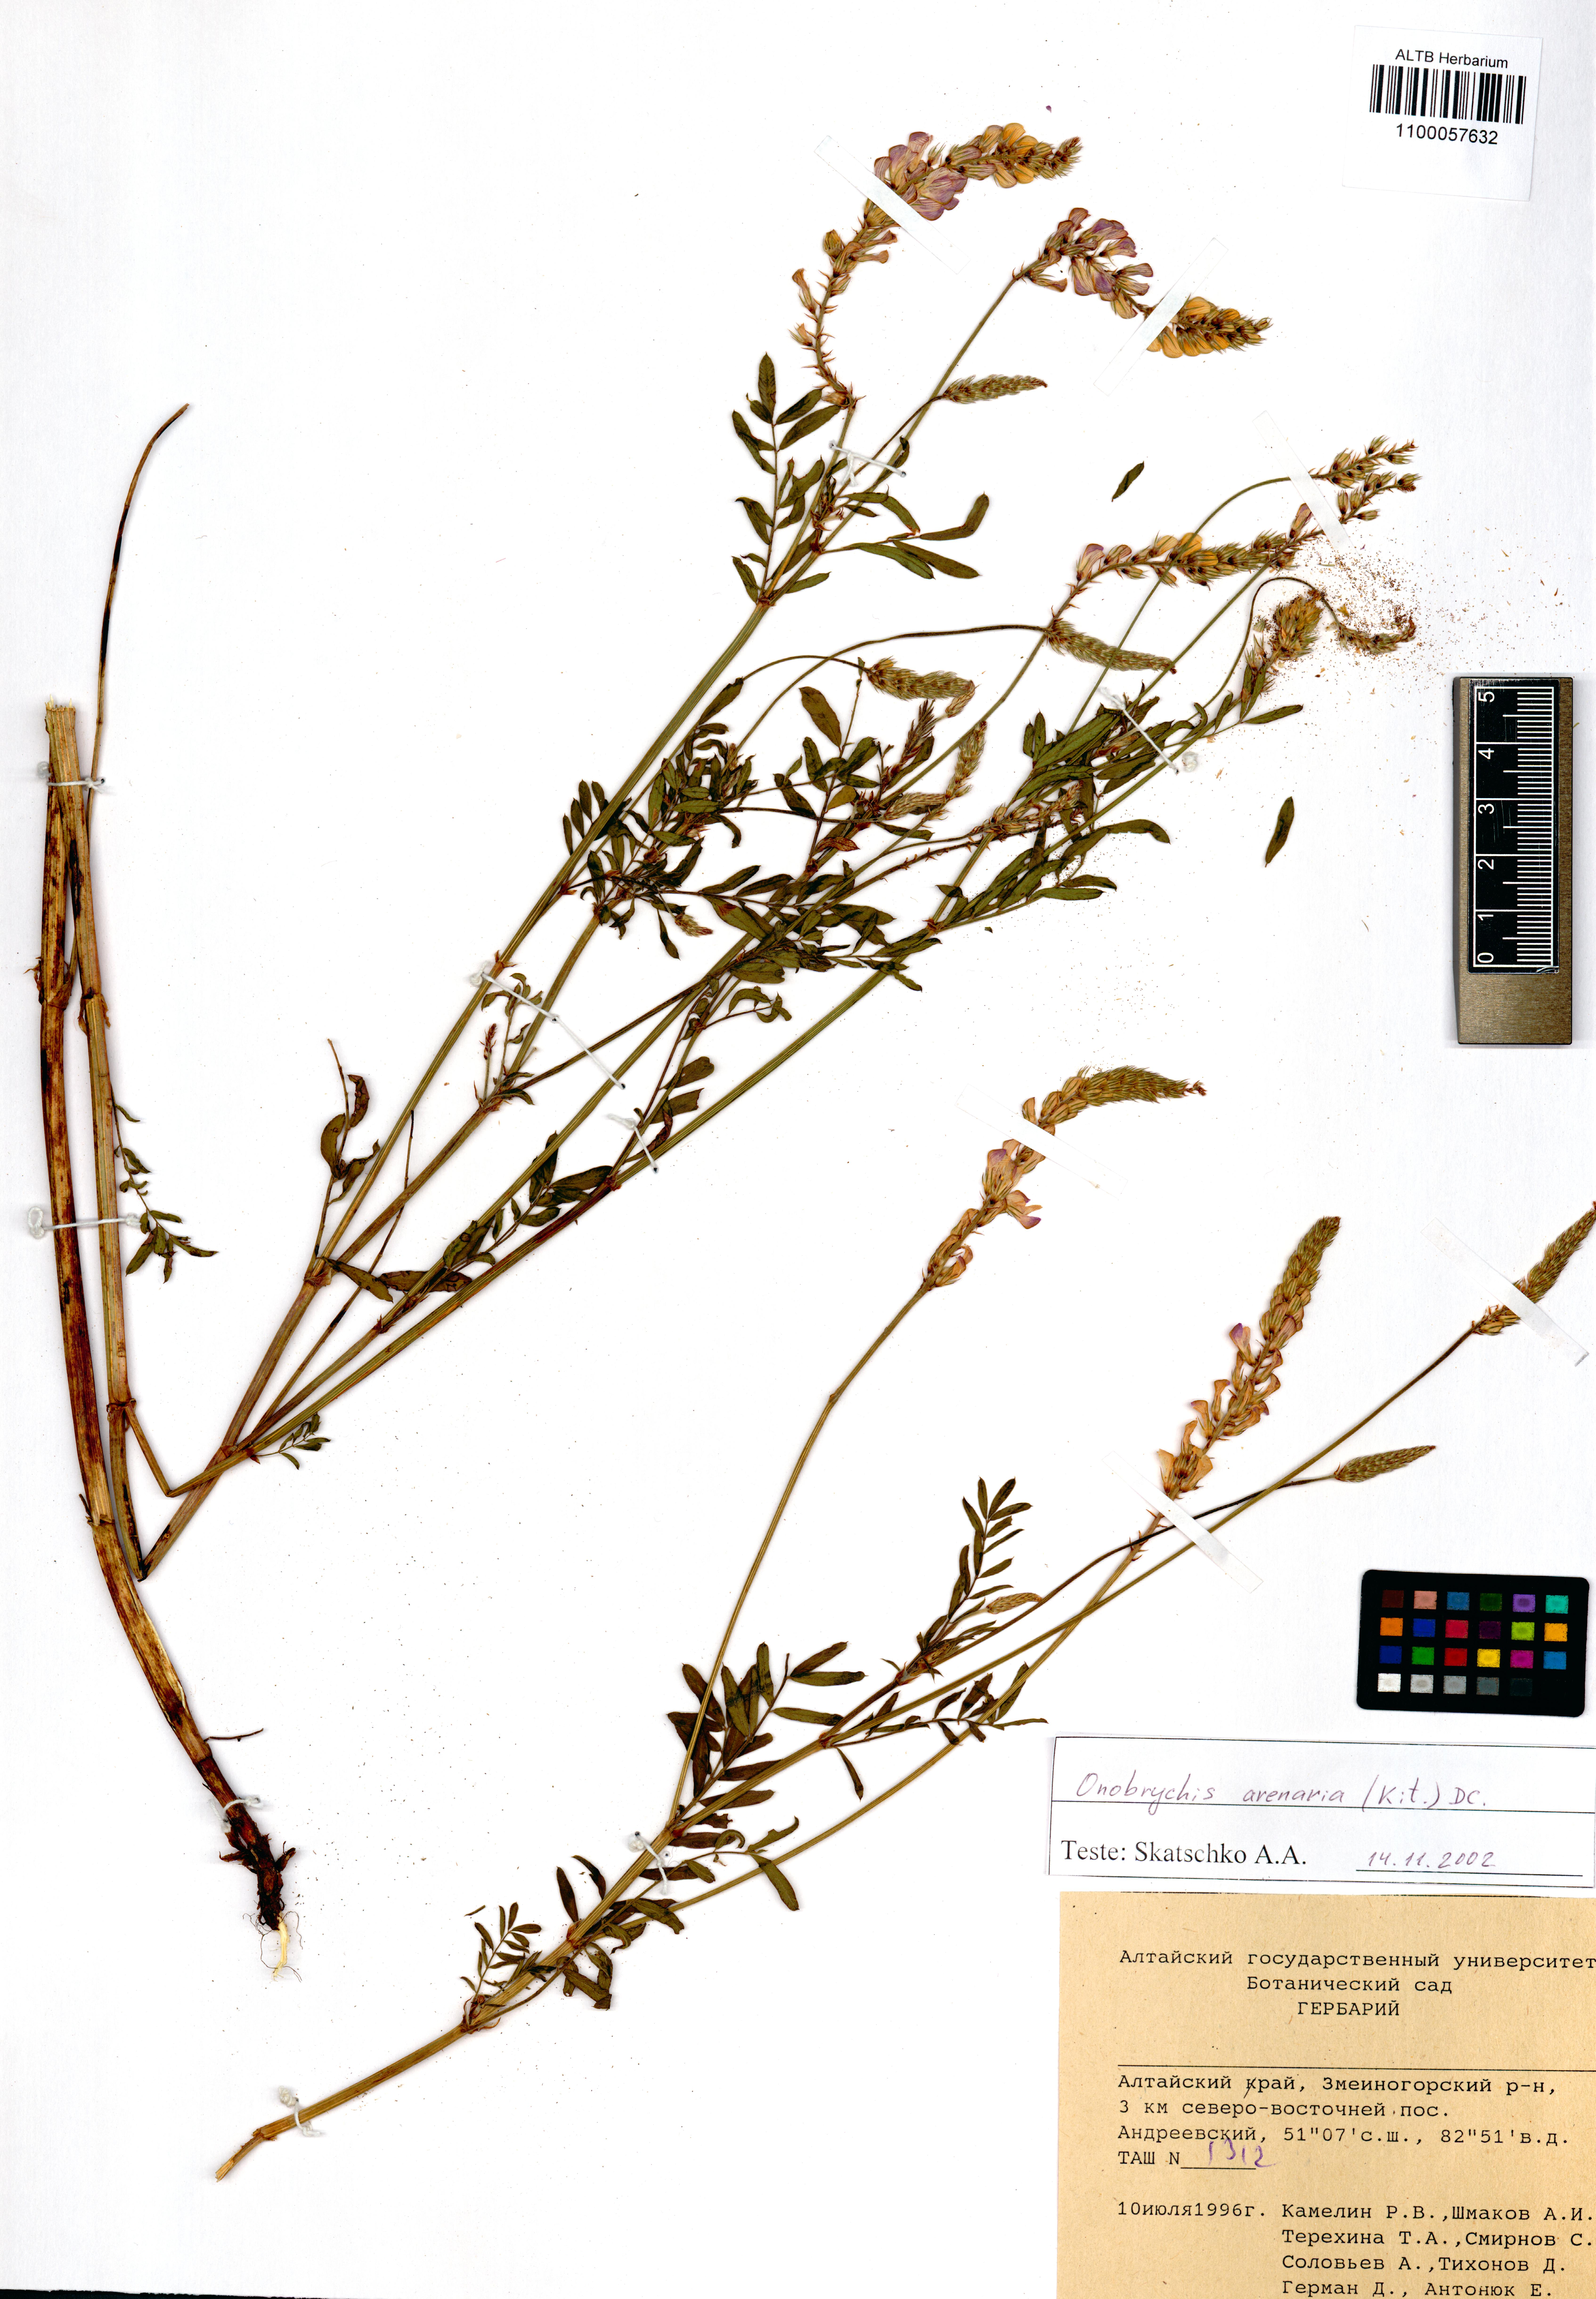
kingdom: Plantae
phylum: Tracheophyta
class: Magnoliopsida
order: Fabales
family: Fabaceae
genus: Onobrychis
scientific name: Onobrychis arenaria
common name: Sand esparcet
